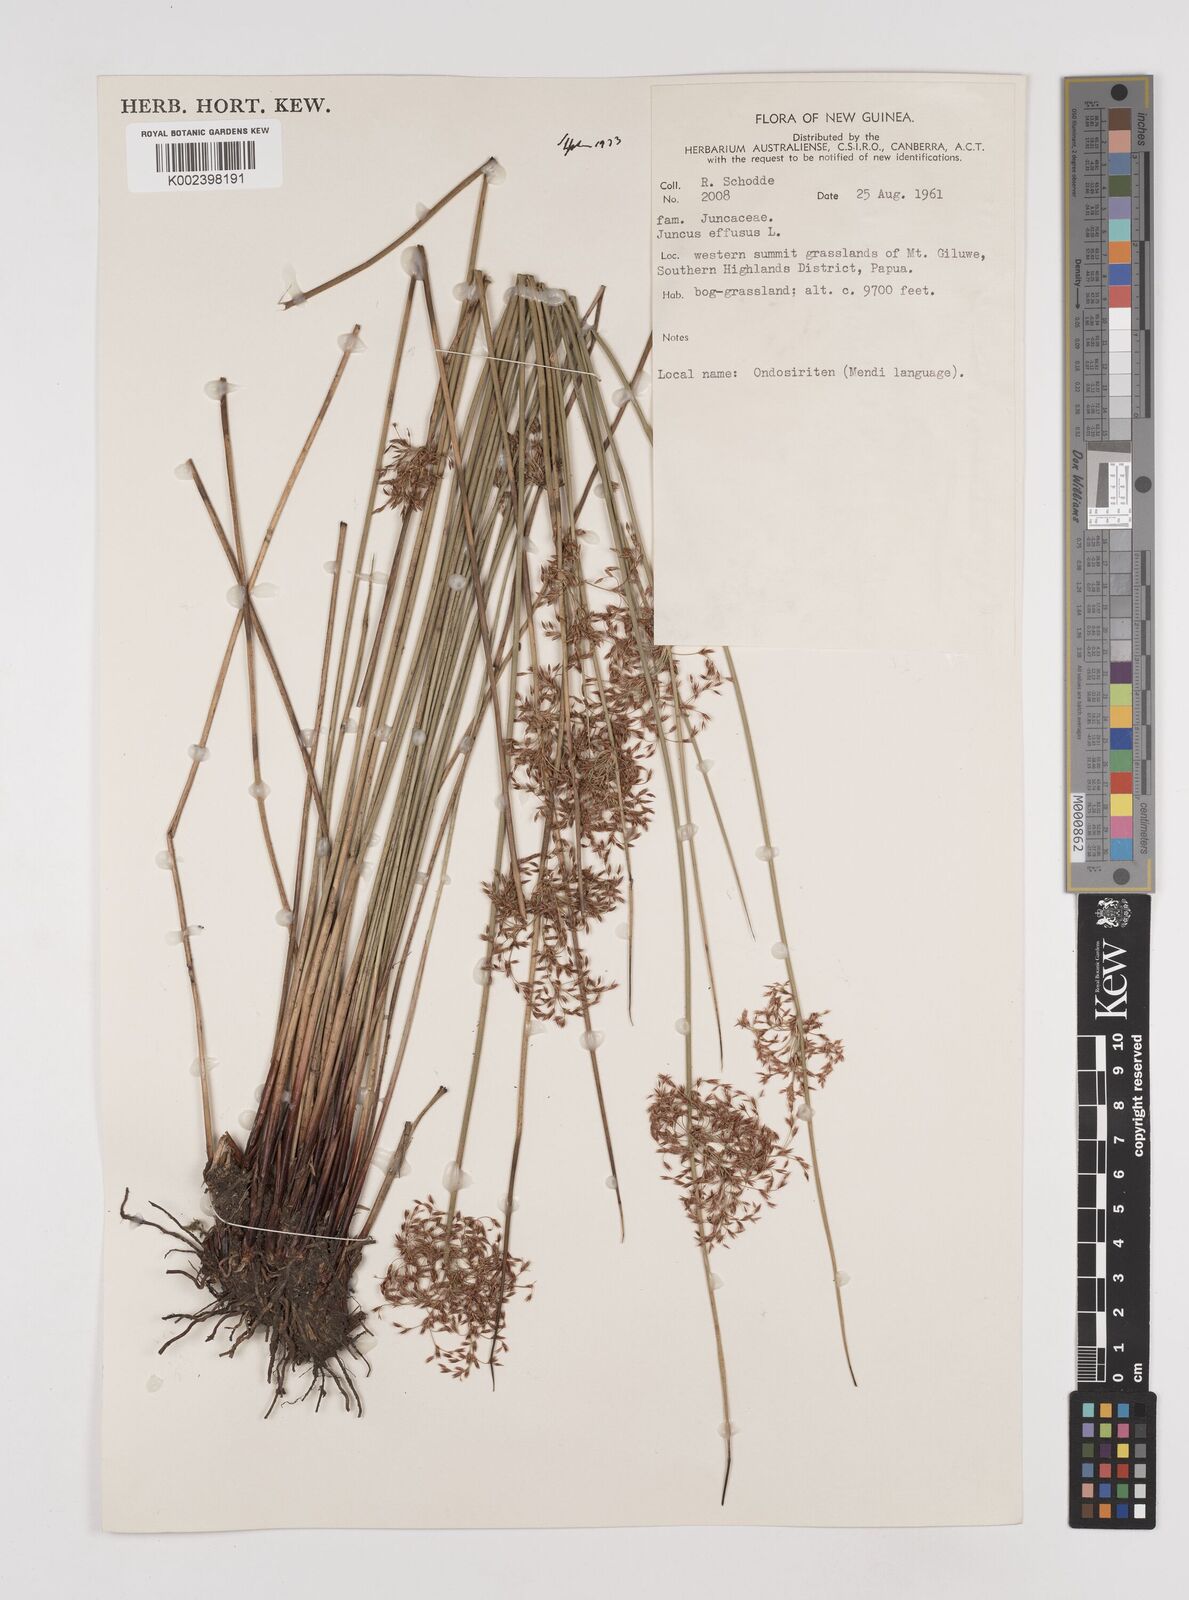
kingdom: Plantae
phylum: Tracheophyta
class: Liliopsida
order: Poales
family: Juncaceae
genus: Juncus
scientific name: Juncus decipiens
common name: Lamp rush
